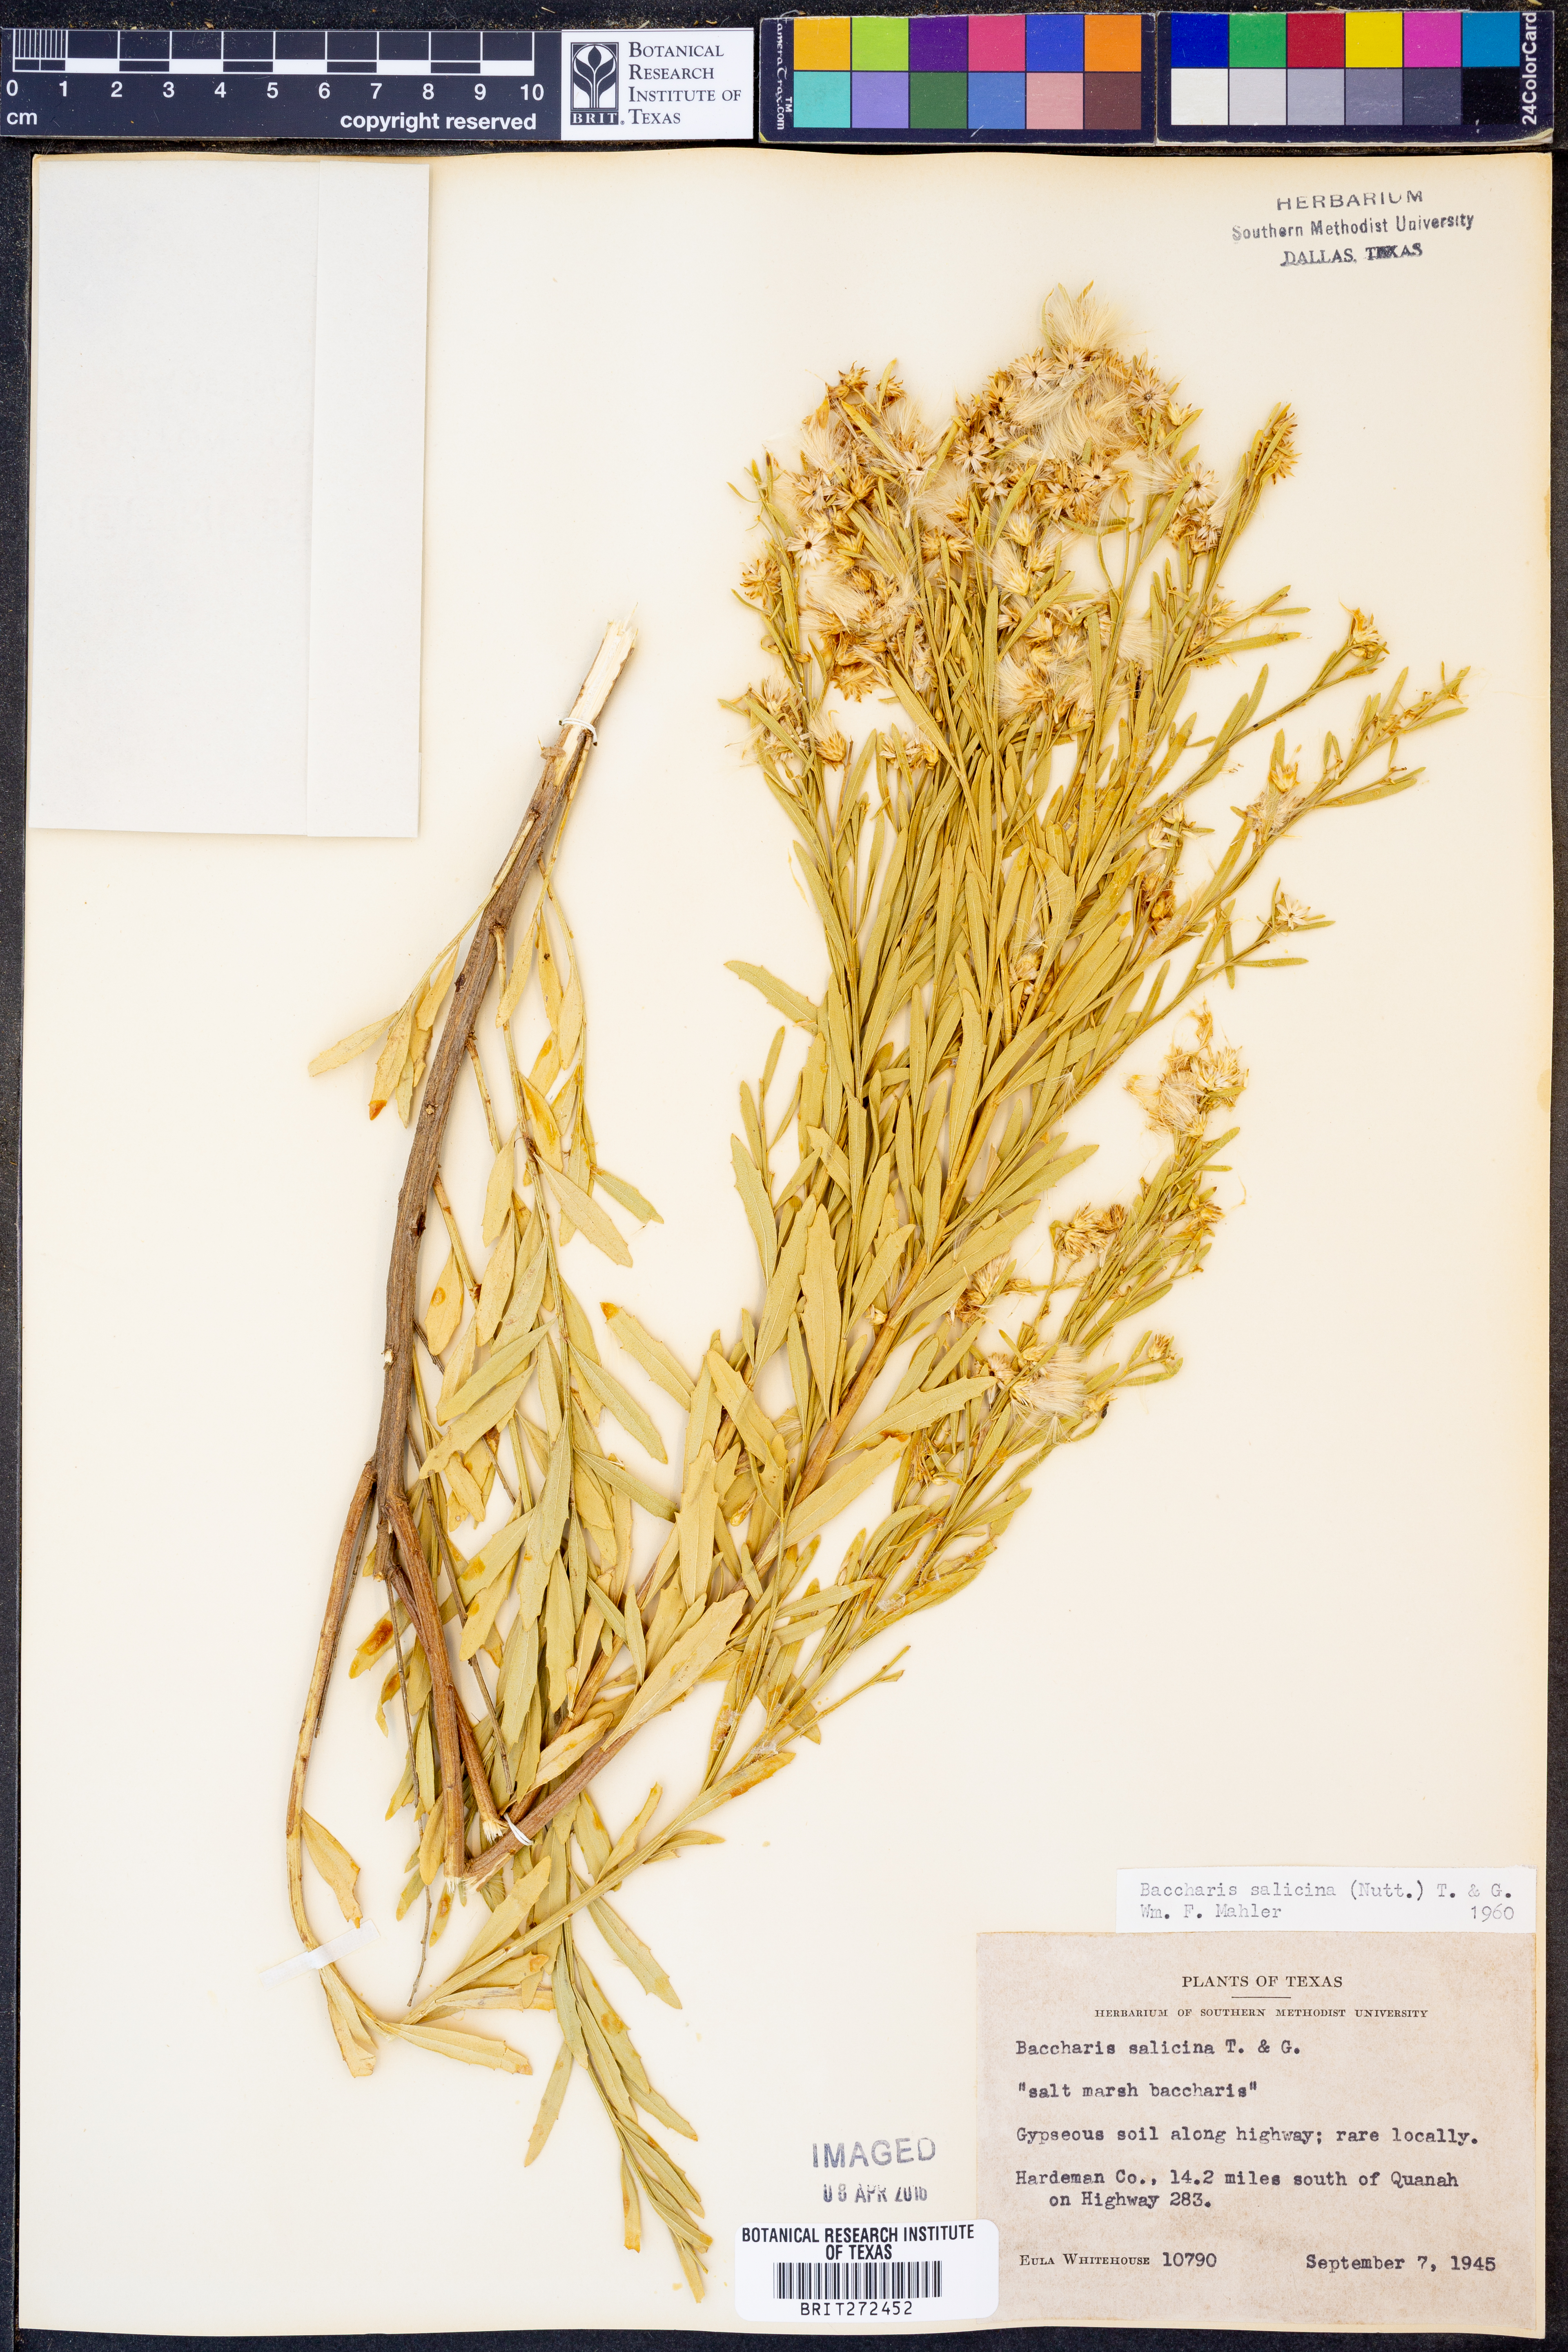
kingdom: Plantae
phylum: Tracheophyta
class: Magnoliopsida
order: Asterales
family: Asteraceae
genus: Baccharis
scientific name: Baccharis salicina
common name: Willow baccharis
